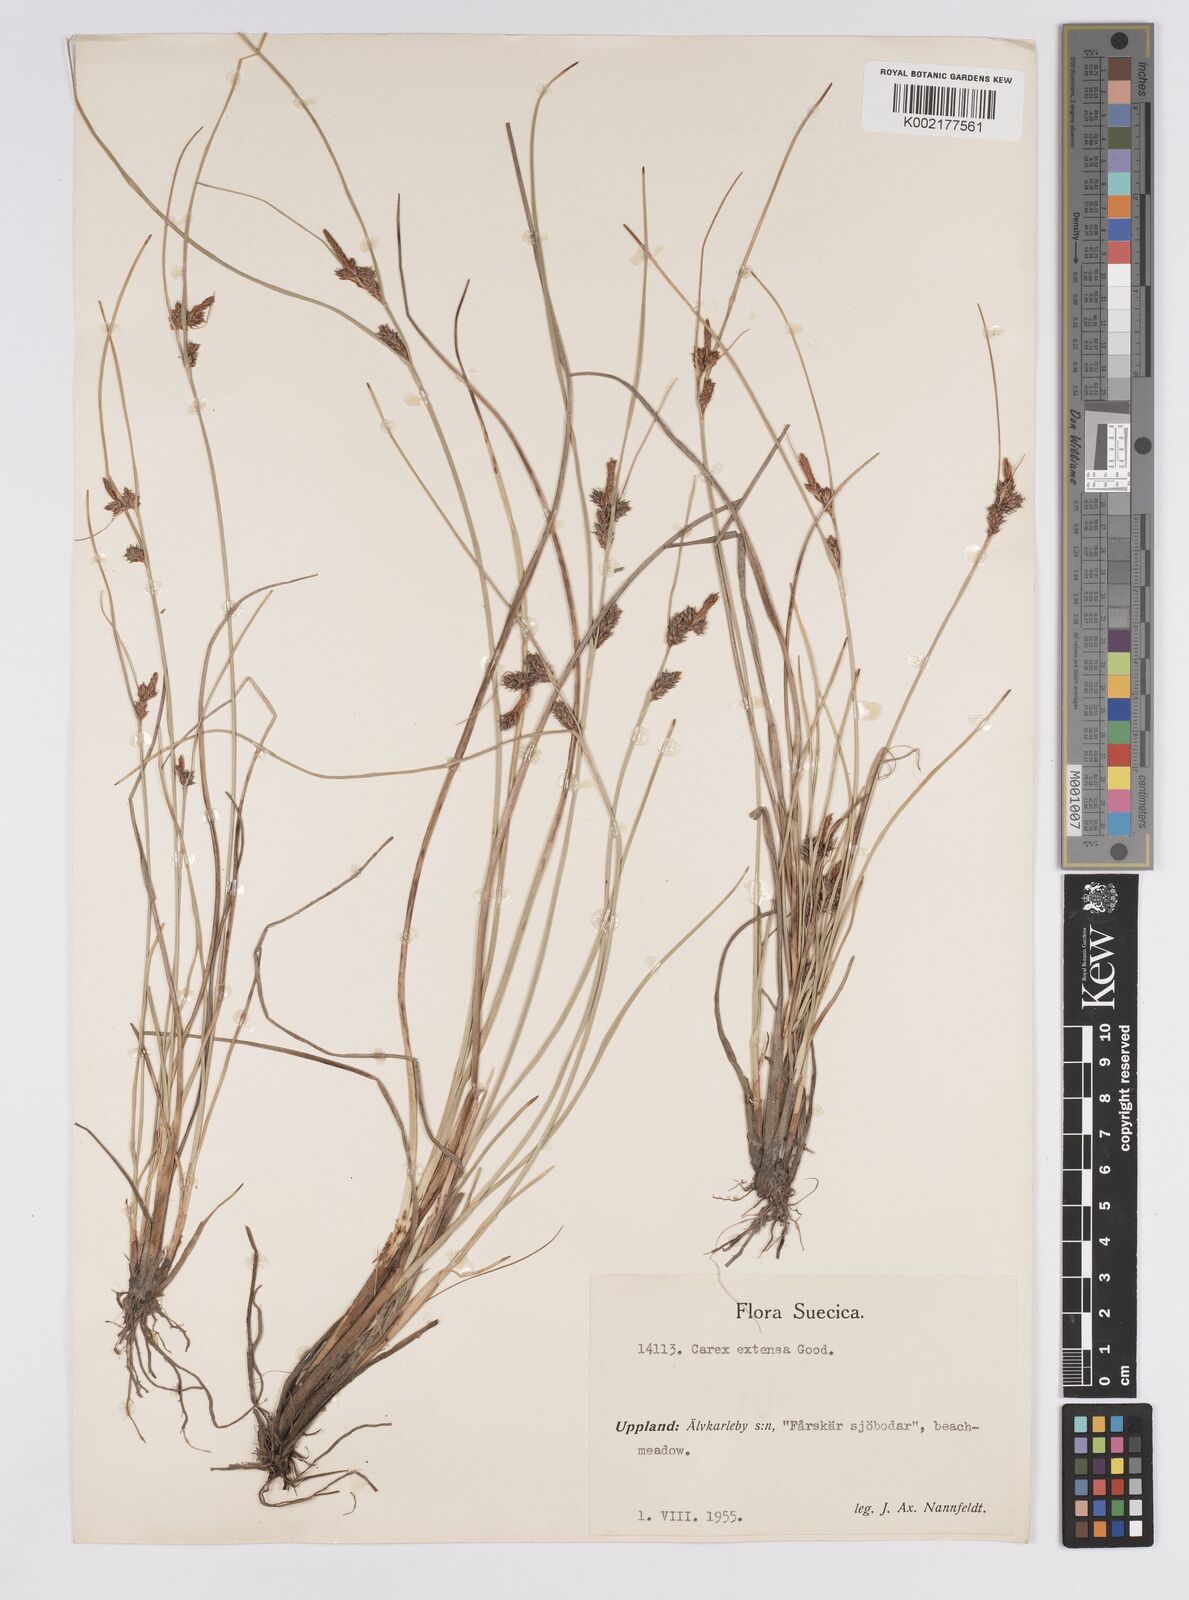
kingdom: Plantae
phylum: Tracheophyta
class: Liliopsida
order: Poales
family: Cyperaceae
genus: Carex
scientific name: Carex extensa
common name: Long-bracted sedge
